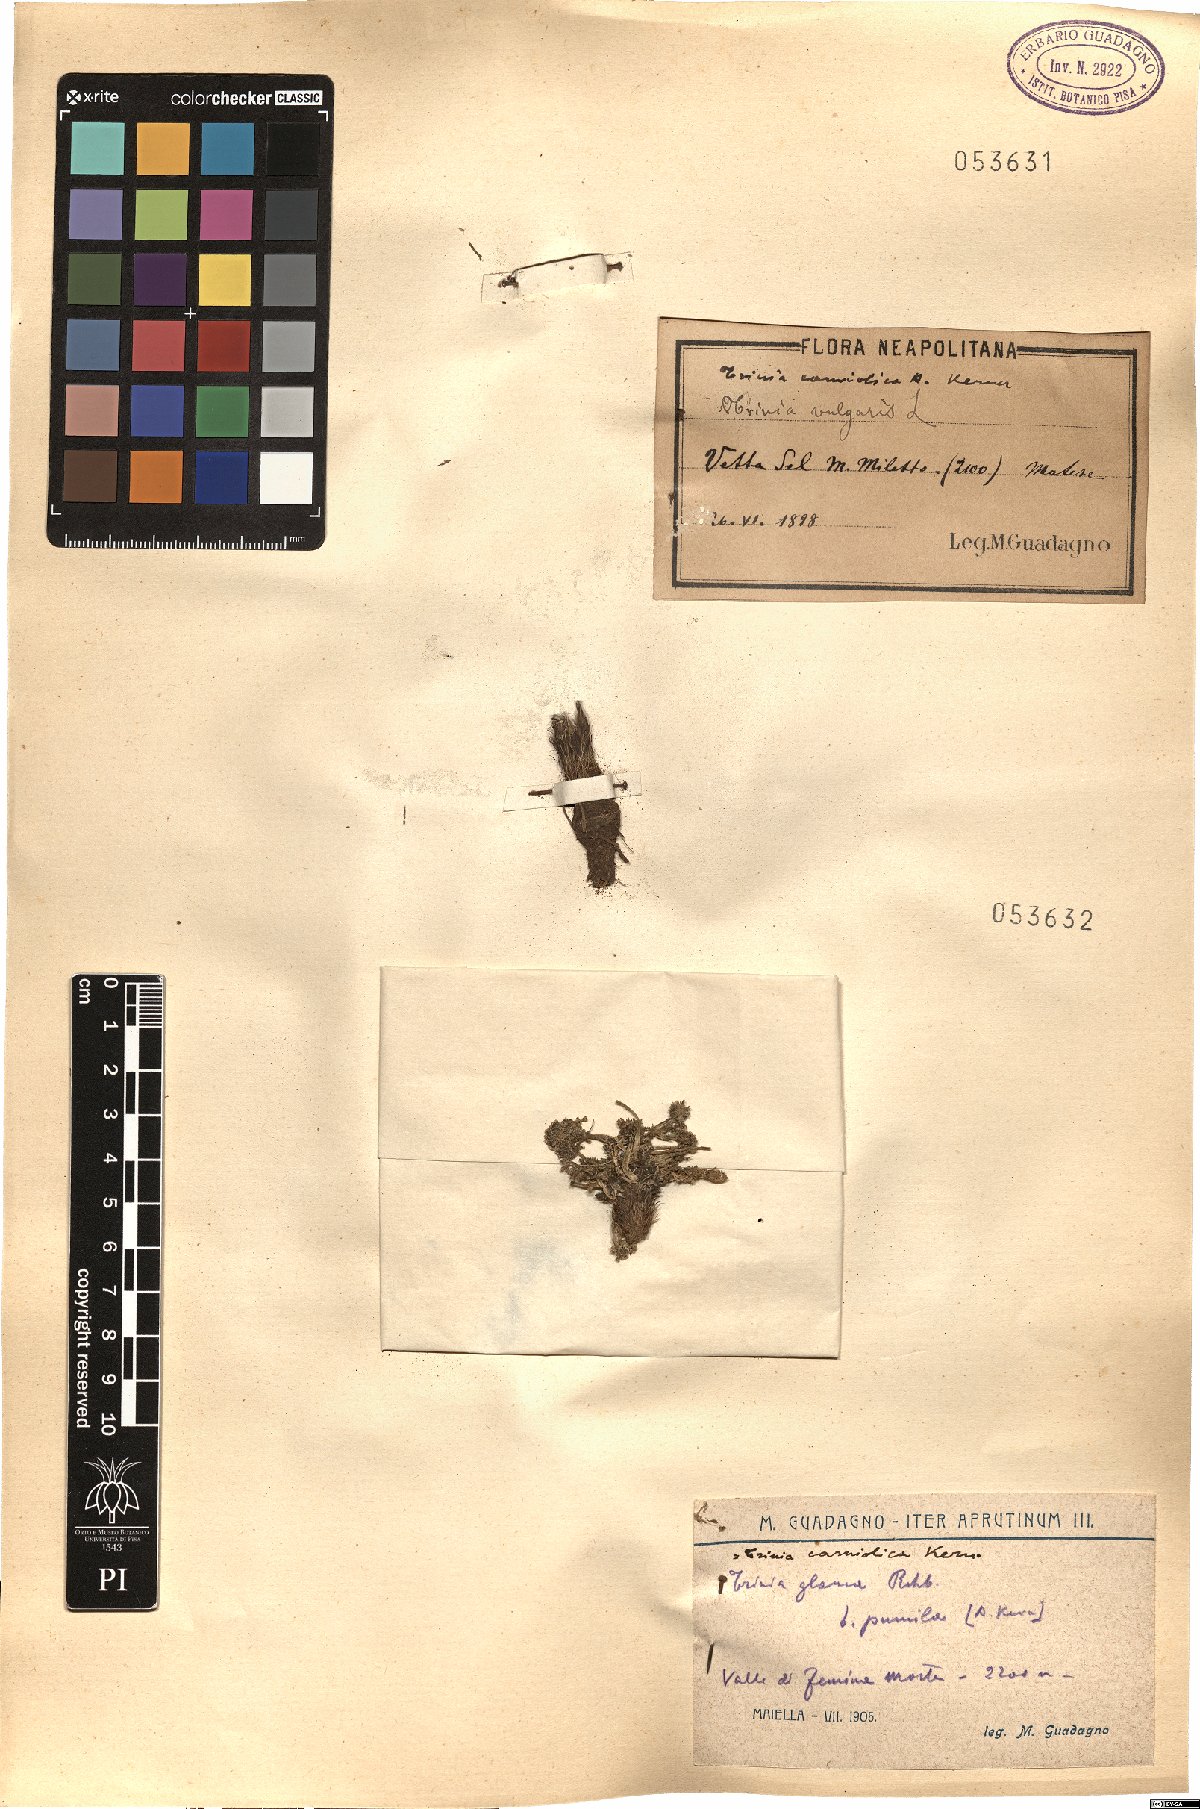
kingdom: Plantae
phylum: Tracheophyta
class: Magnoliopsida
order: Apiales
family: Apiaceae
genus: Trinia
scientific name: Trinia glauca
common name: Honewort
